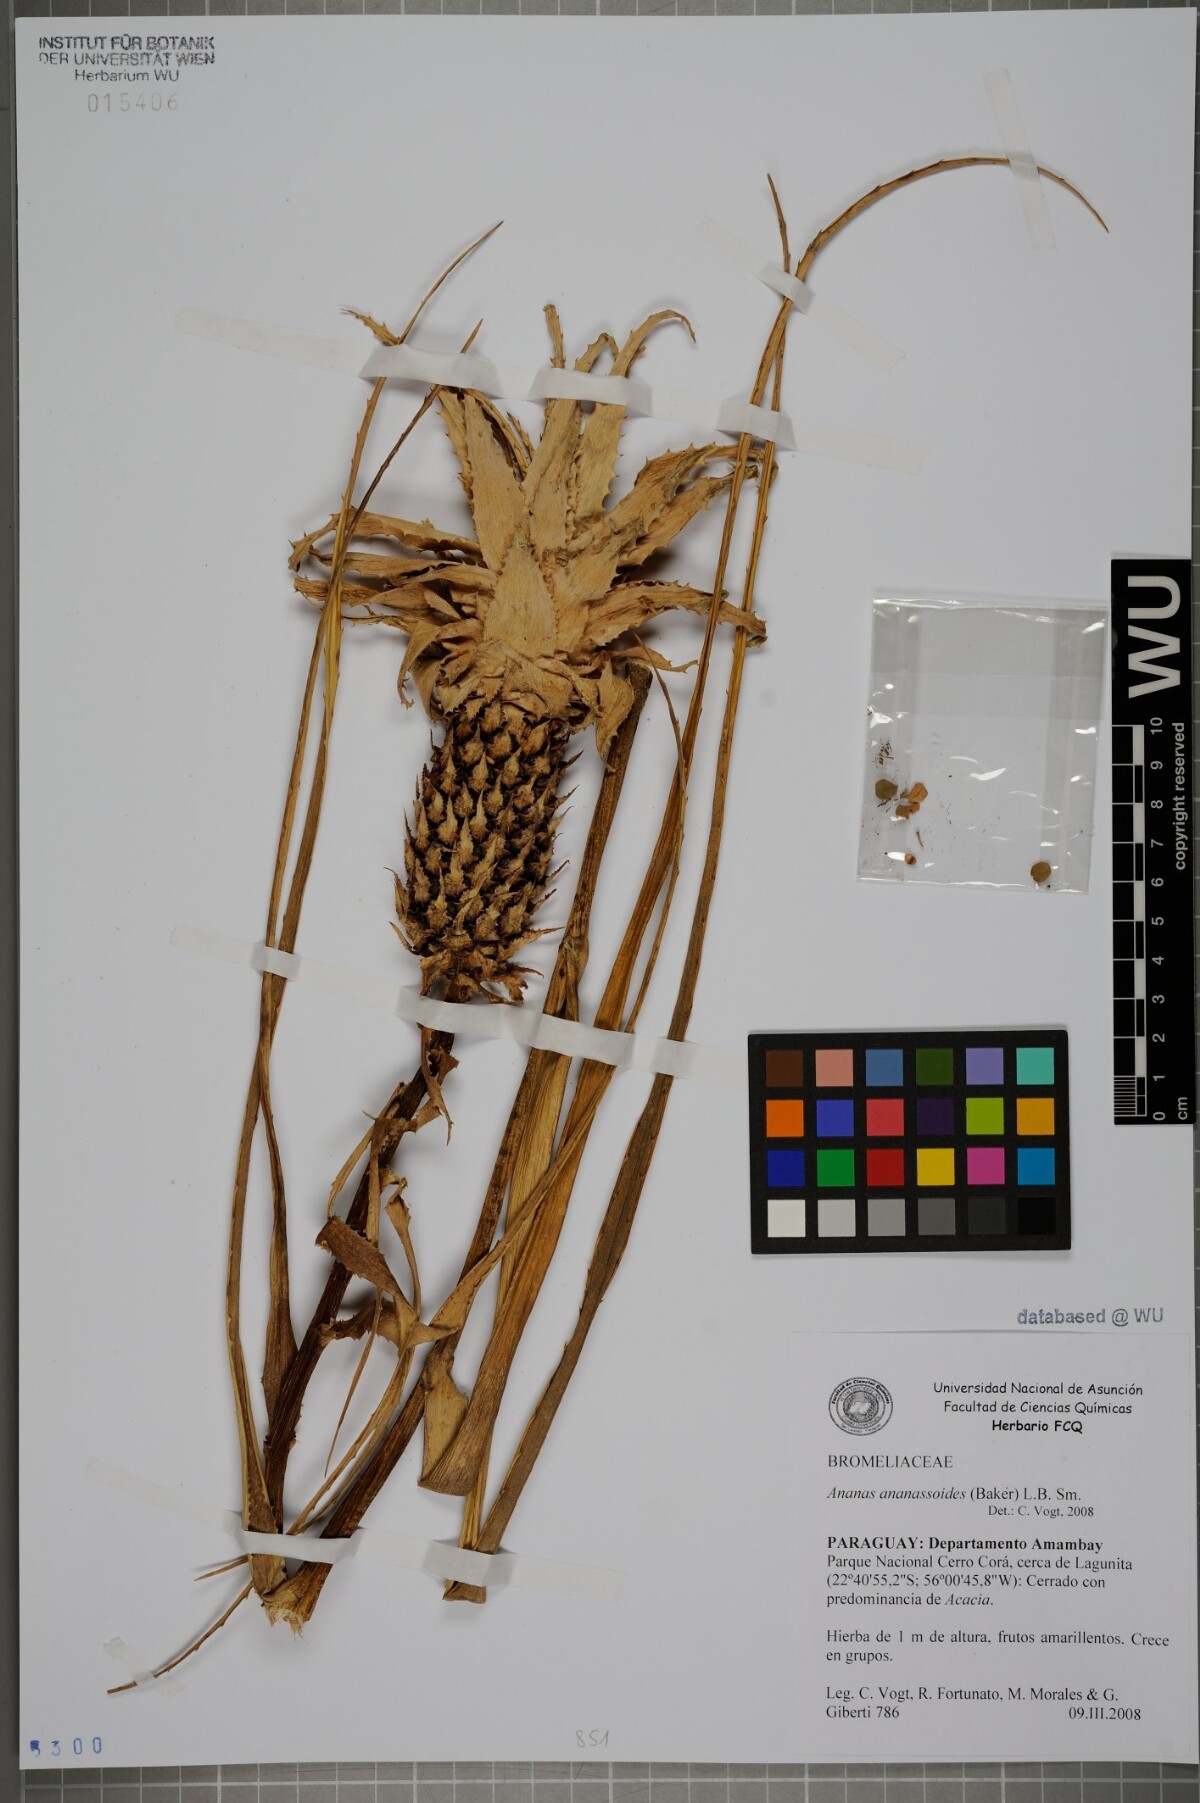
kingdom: Plantae
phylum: Tracheophyta
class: Liliopsida
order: Poales
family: Bromeliaceae
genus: Ananas
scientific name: Ananas comosus
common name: Pineapple
